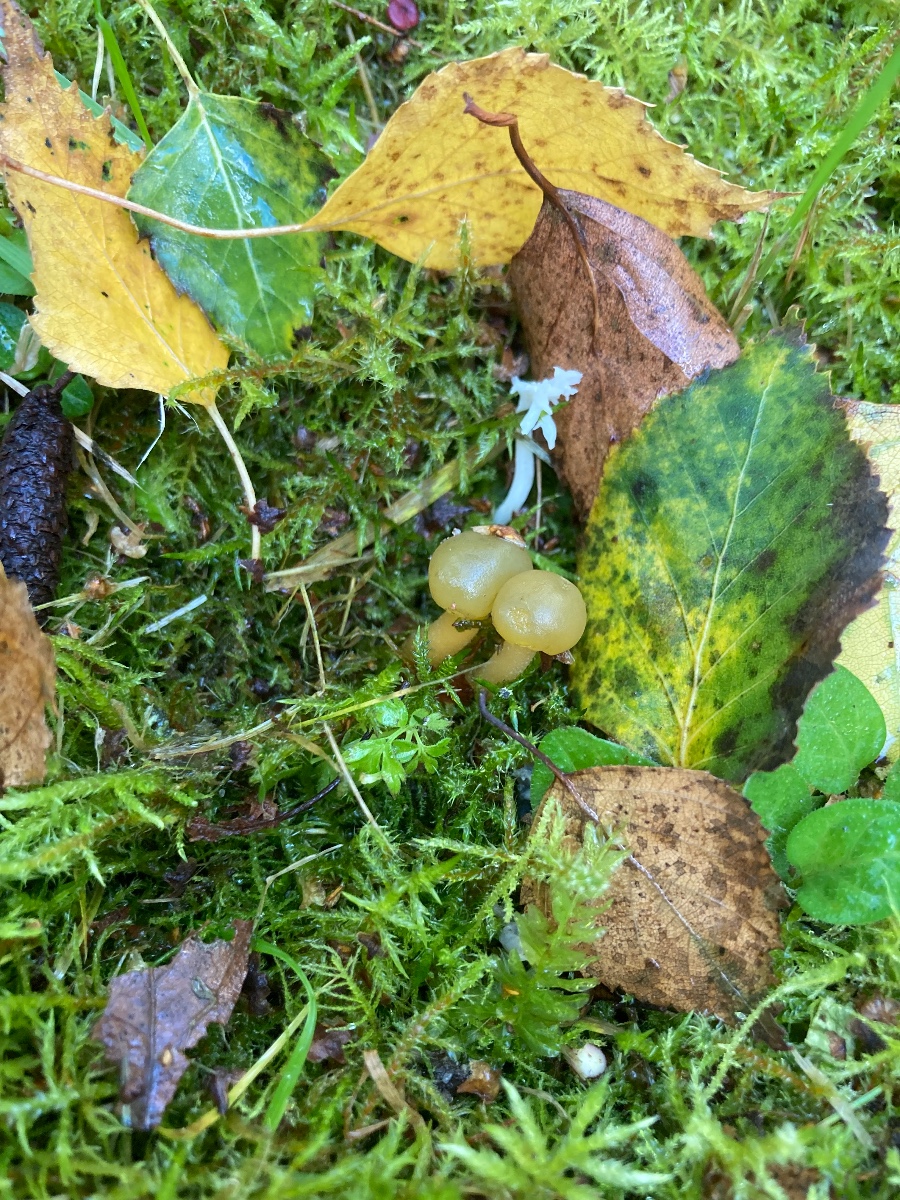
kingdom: Fungi
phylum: Ascomycota
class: Leotiomycetes
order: Leotiales
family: Leotiaceae
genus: Leotia
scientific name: Leotia lubrica
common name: ravsvamp
